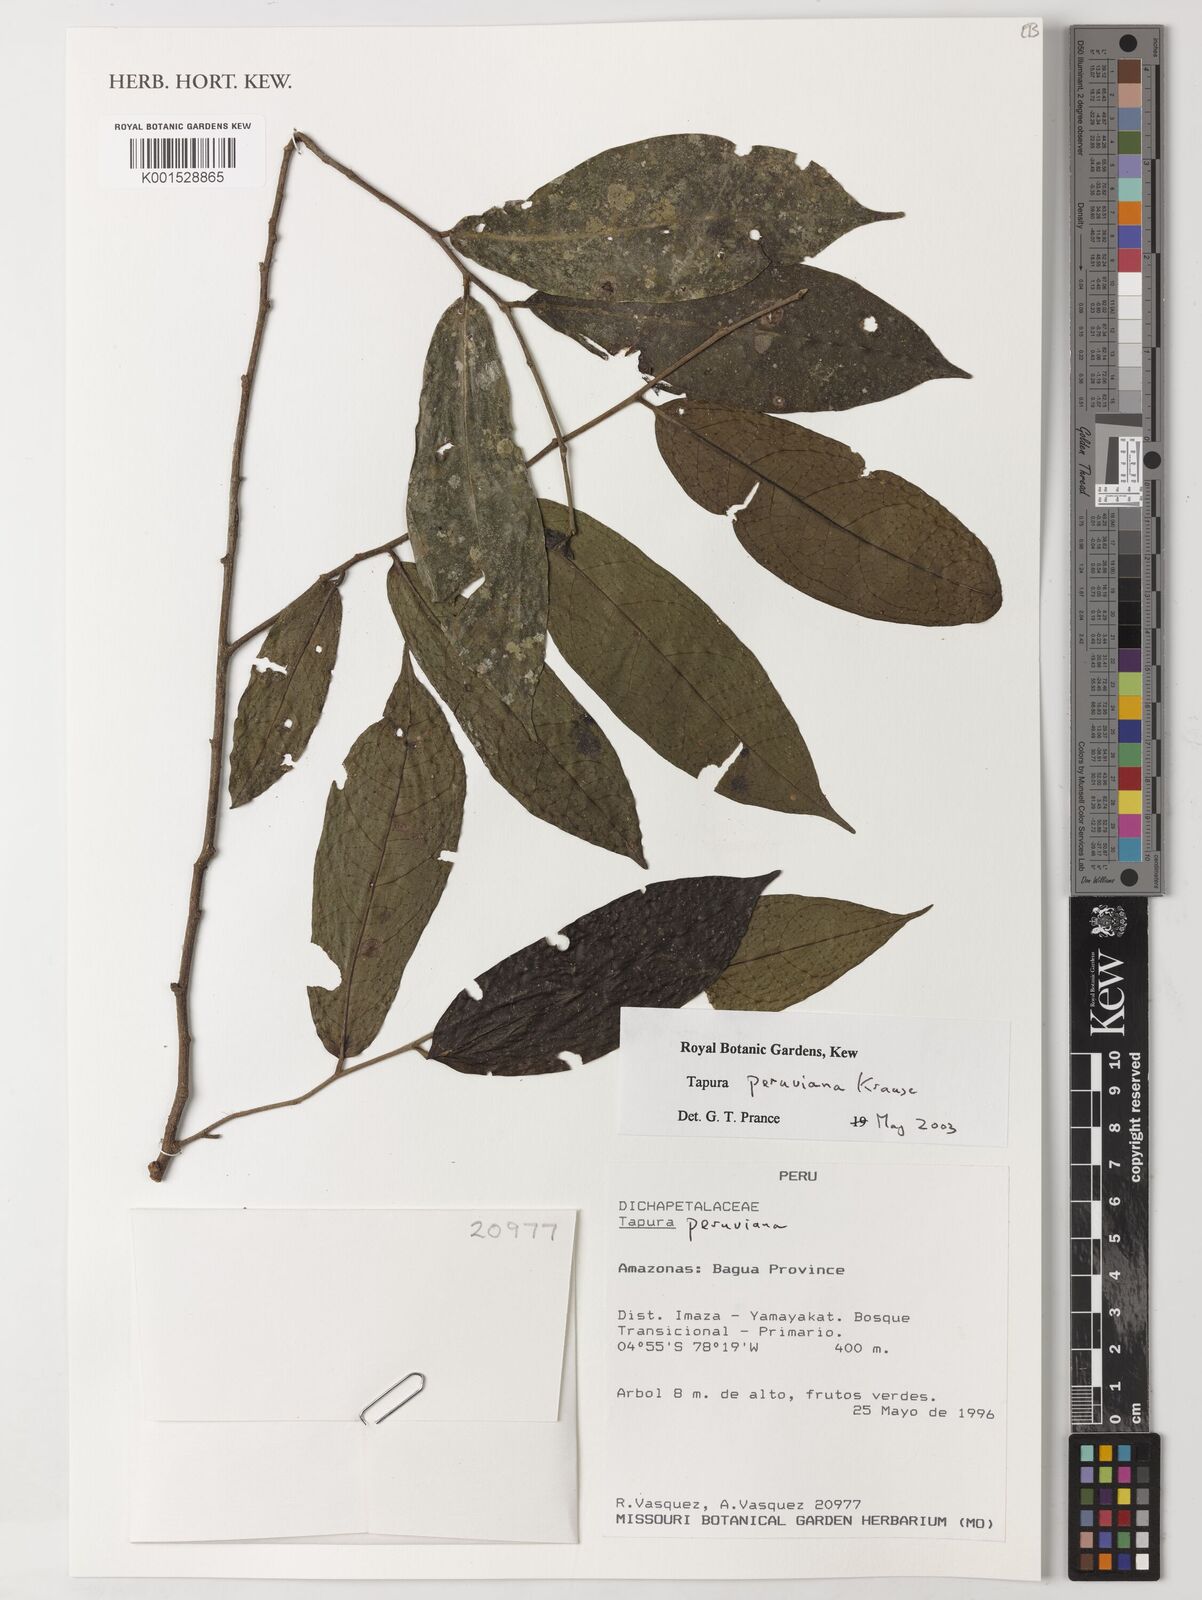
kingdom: Plantae
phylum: Tracheophyta
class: Magnoliopsida
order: Malpighiales
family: Dichapetalaceae
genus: Tapura
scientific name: Tapura peruviana
